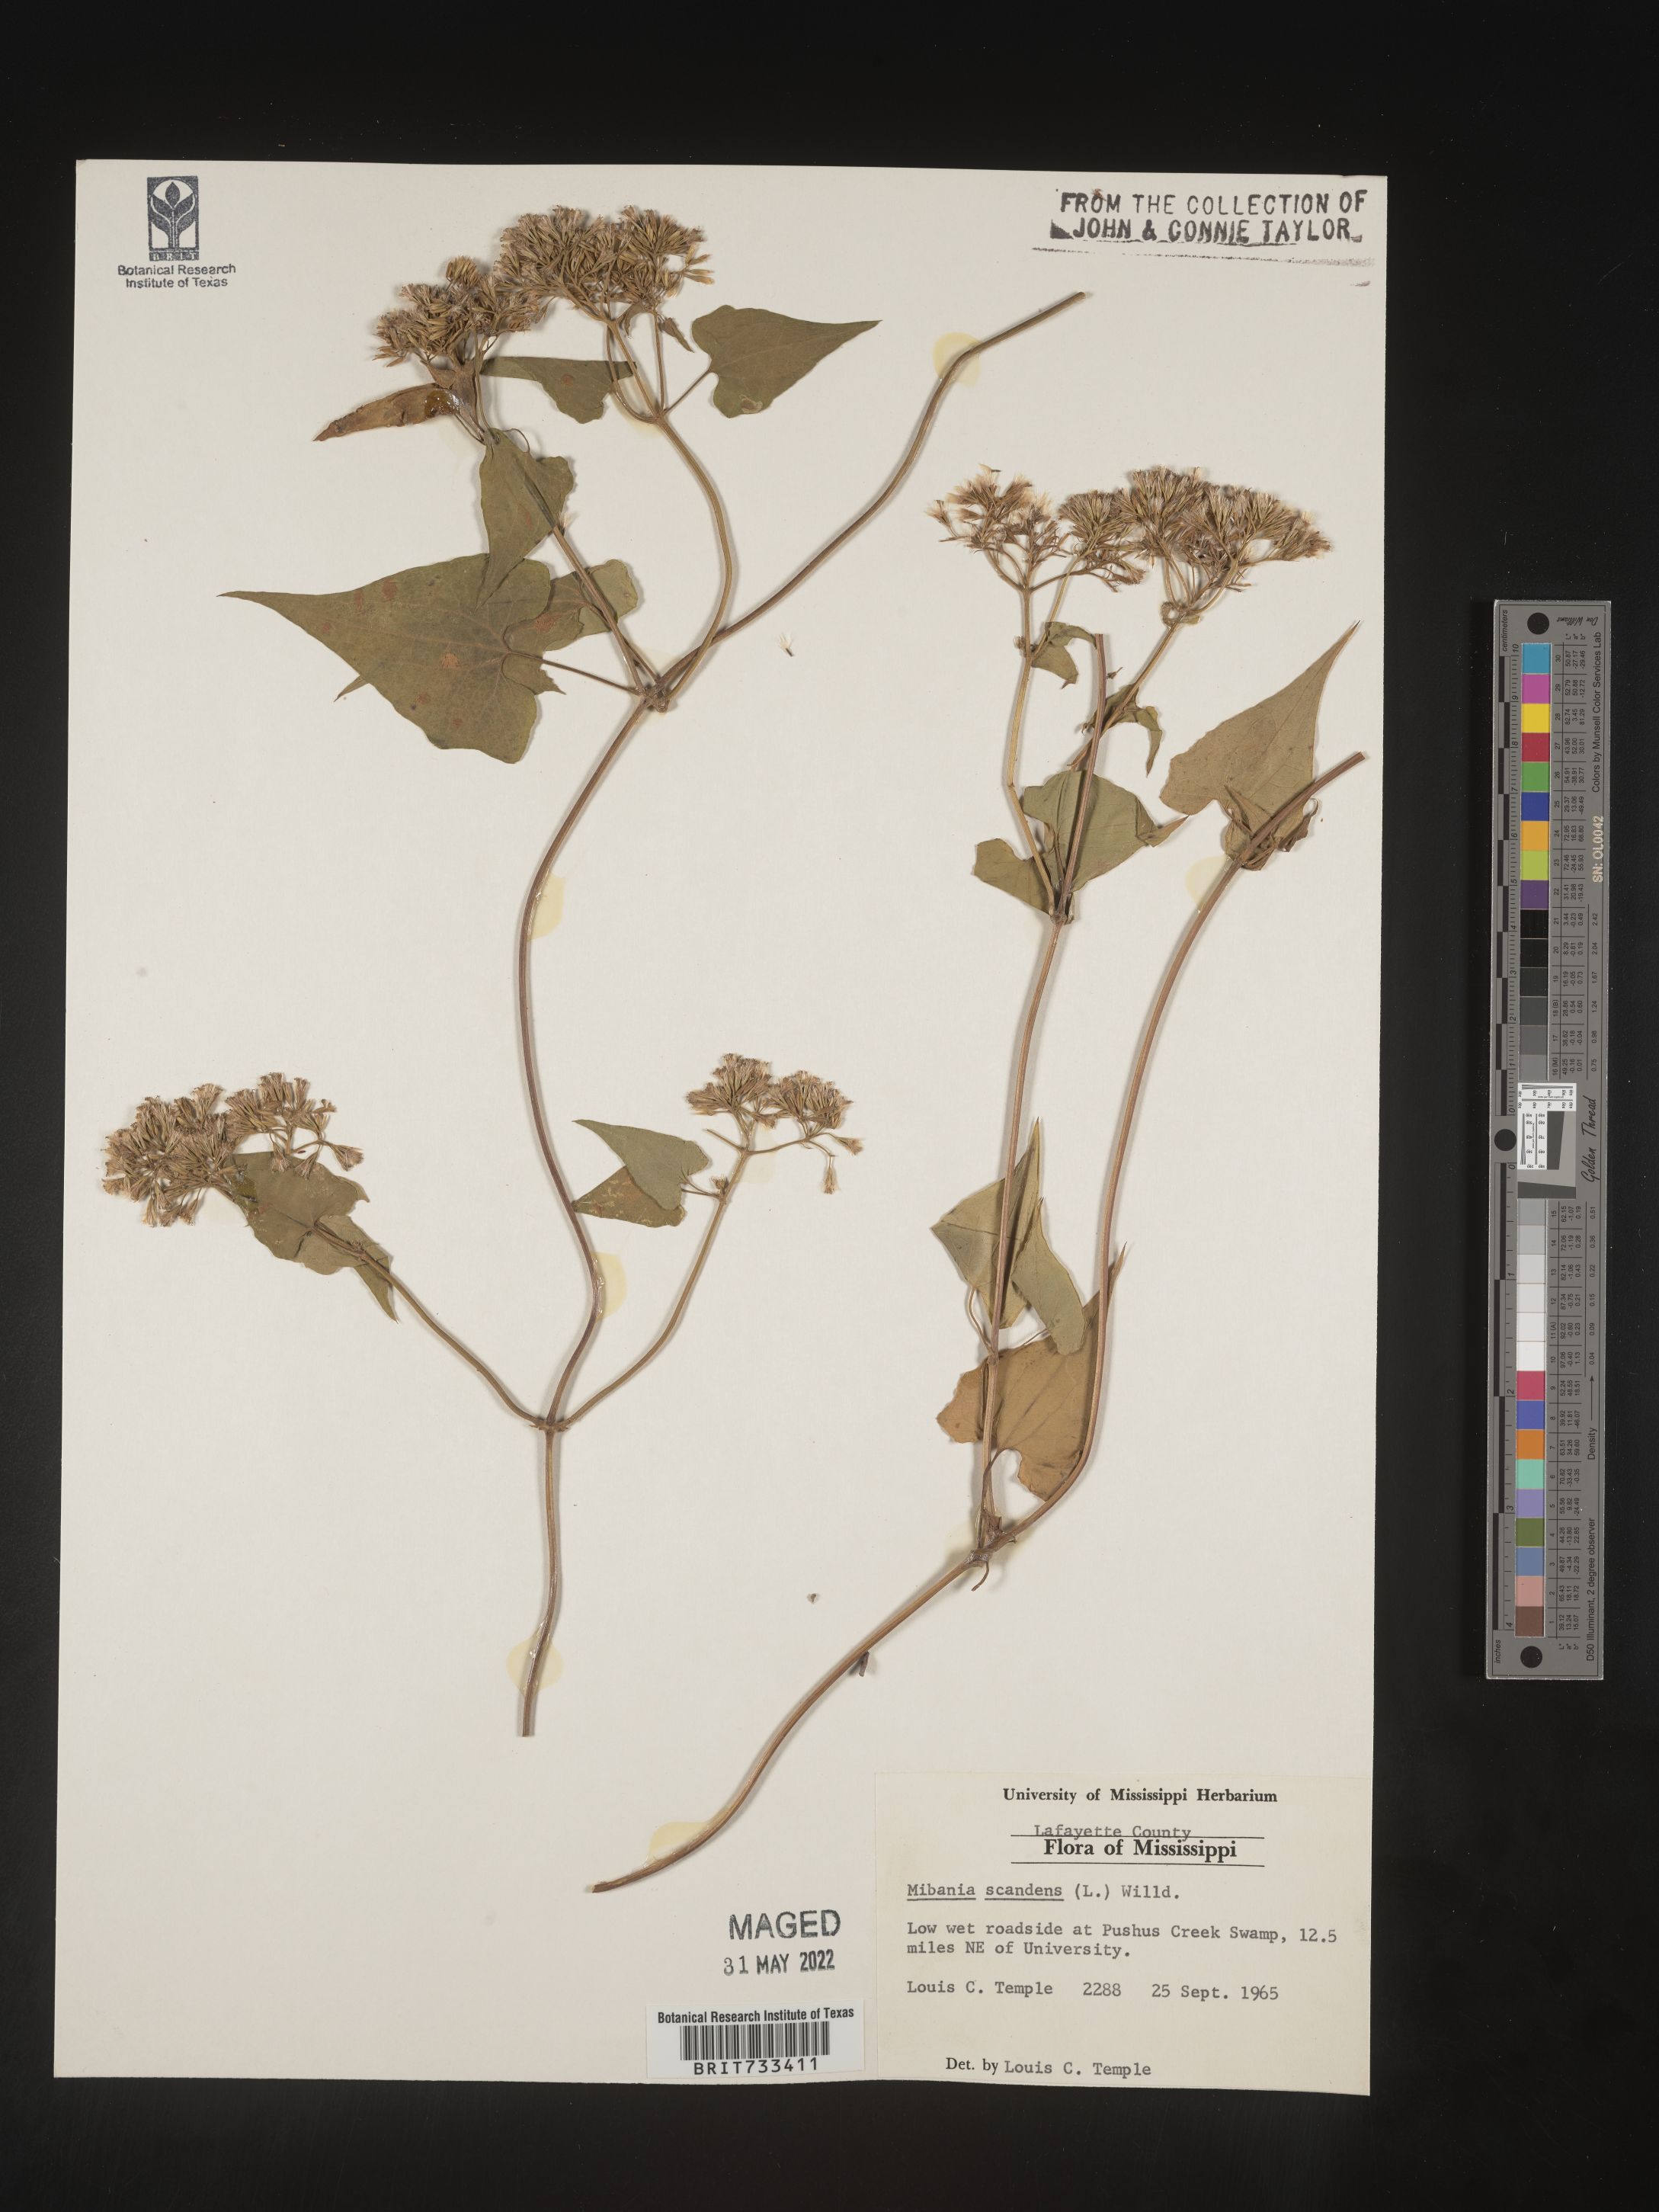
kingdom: Plantae
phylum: Tracheophyta
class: Magnoliopsida
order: Asterales
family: Asteraceae
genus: Mikania
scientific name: Mikania scandens
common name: Climbing hempvine
